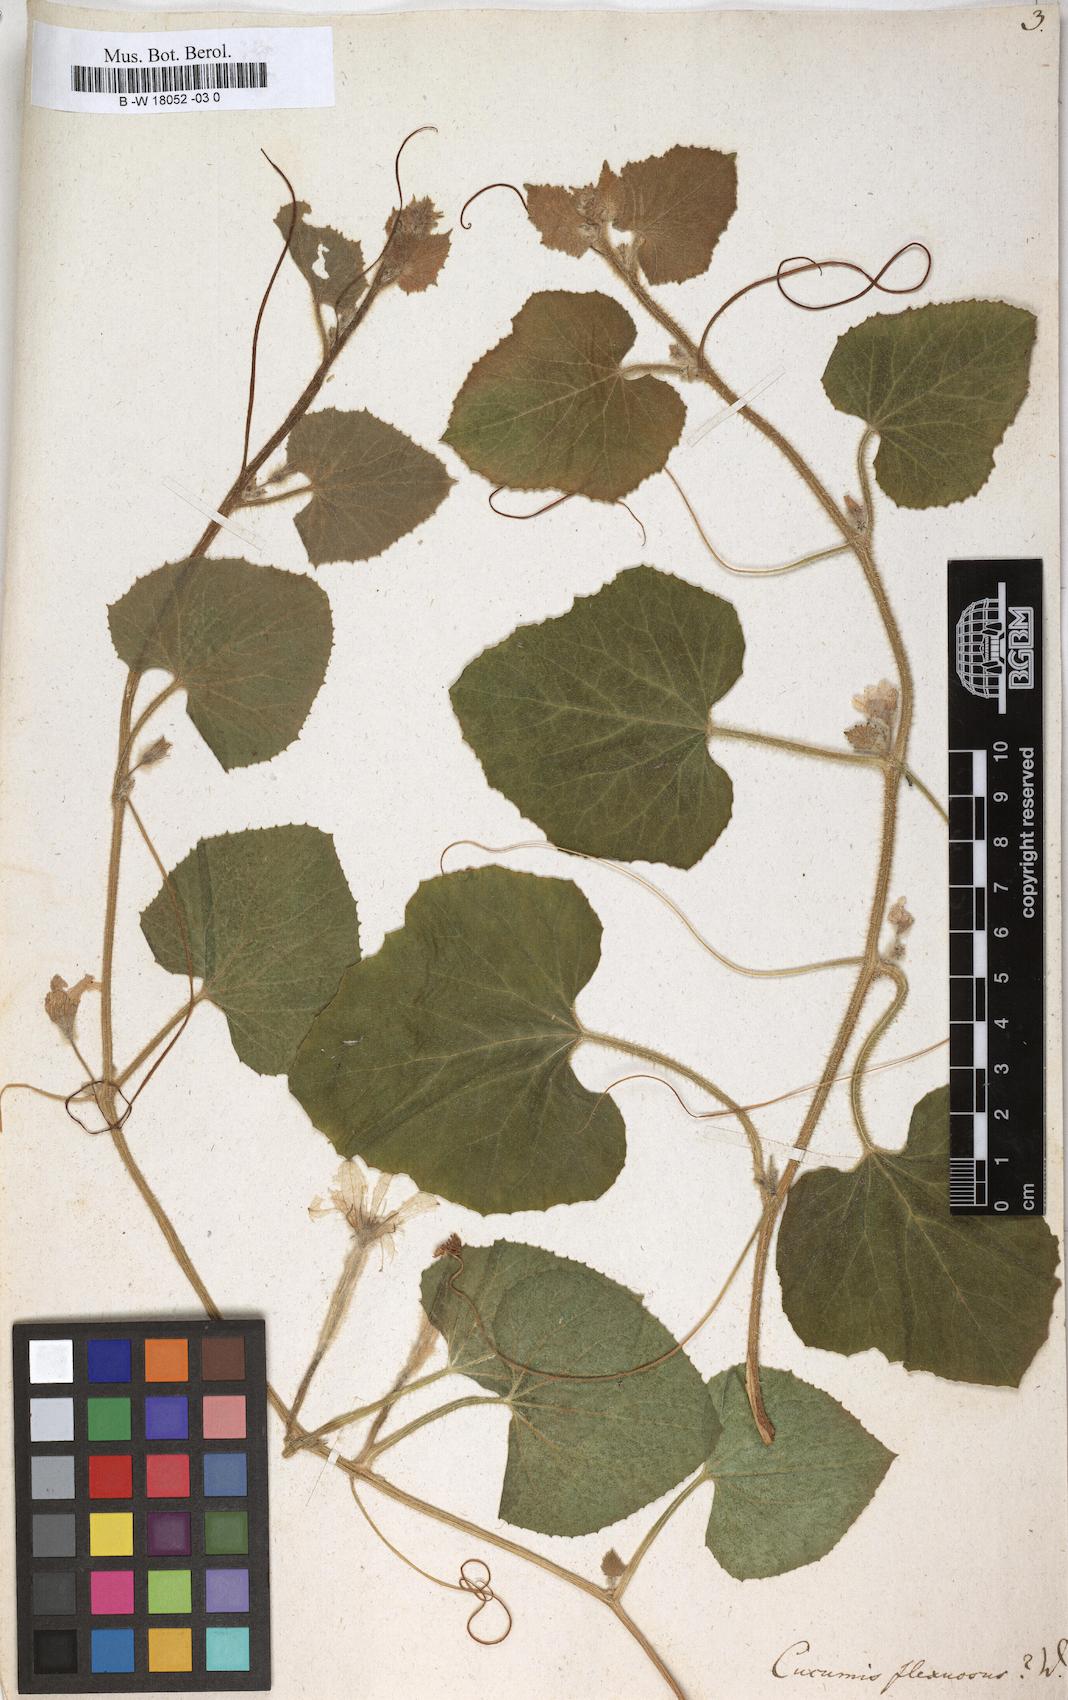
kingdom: Plantae
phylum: Tracheophyta
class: Magnoliopsida
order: Cucurbitales
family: Cucurbitaceae
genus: Cucumis
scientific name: Cucumis melo
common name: Melon
